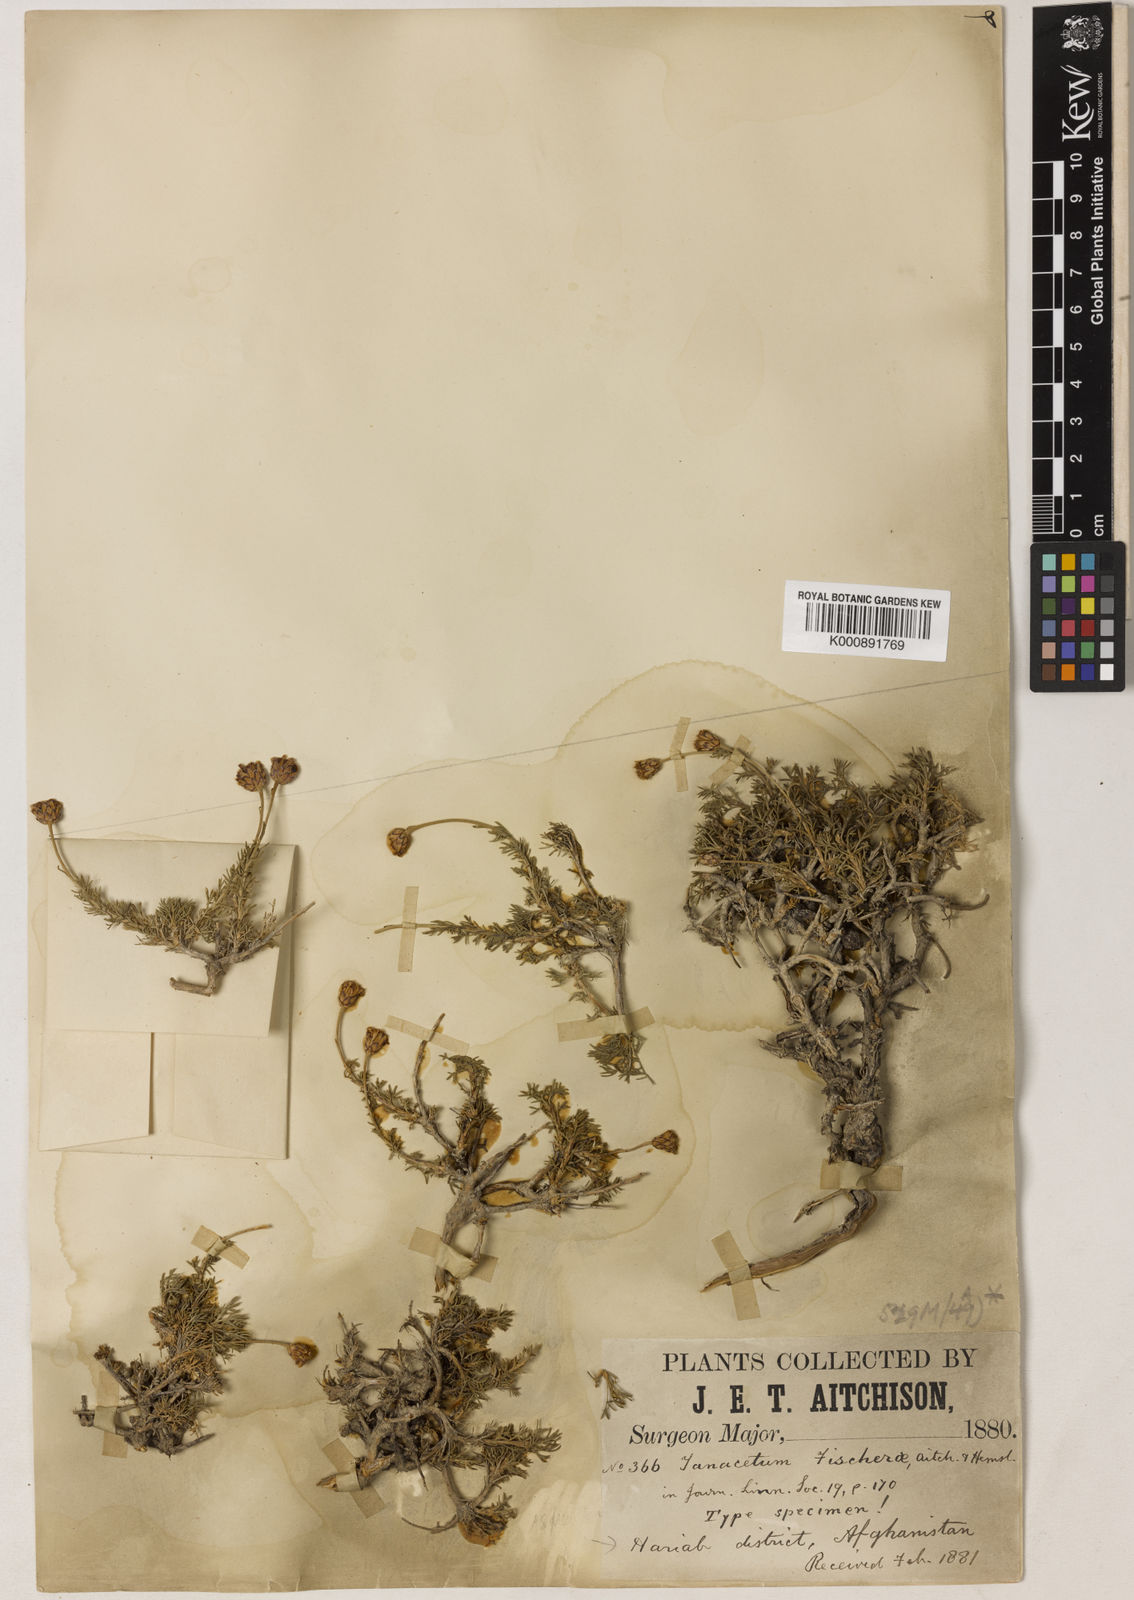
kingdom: Plantae
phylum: Tracheophyta
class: Magnoliopsida
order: Asterales
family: Asteraceae
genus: Xylanthemum
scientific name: Xylanthemum fisherae
